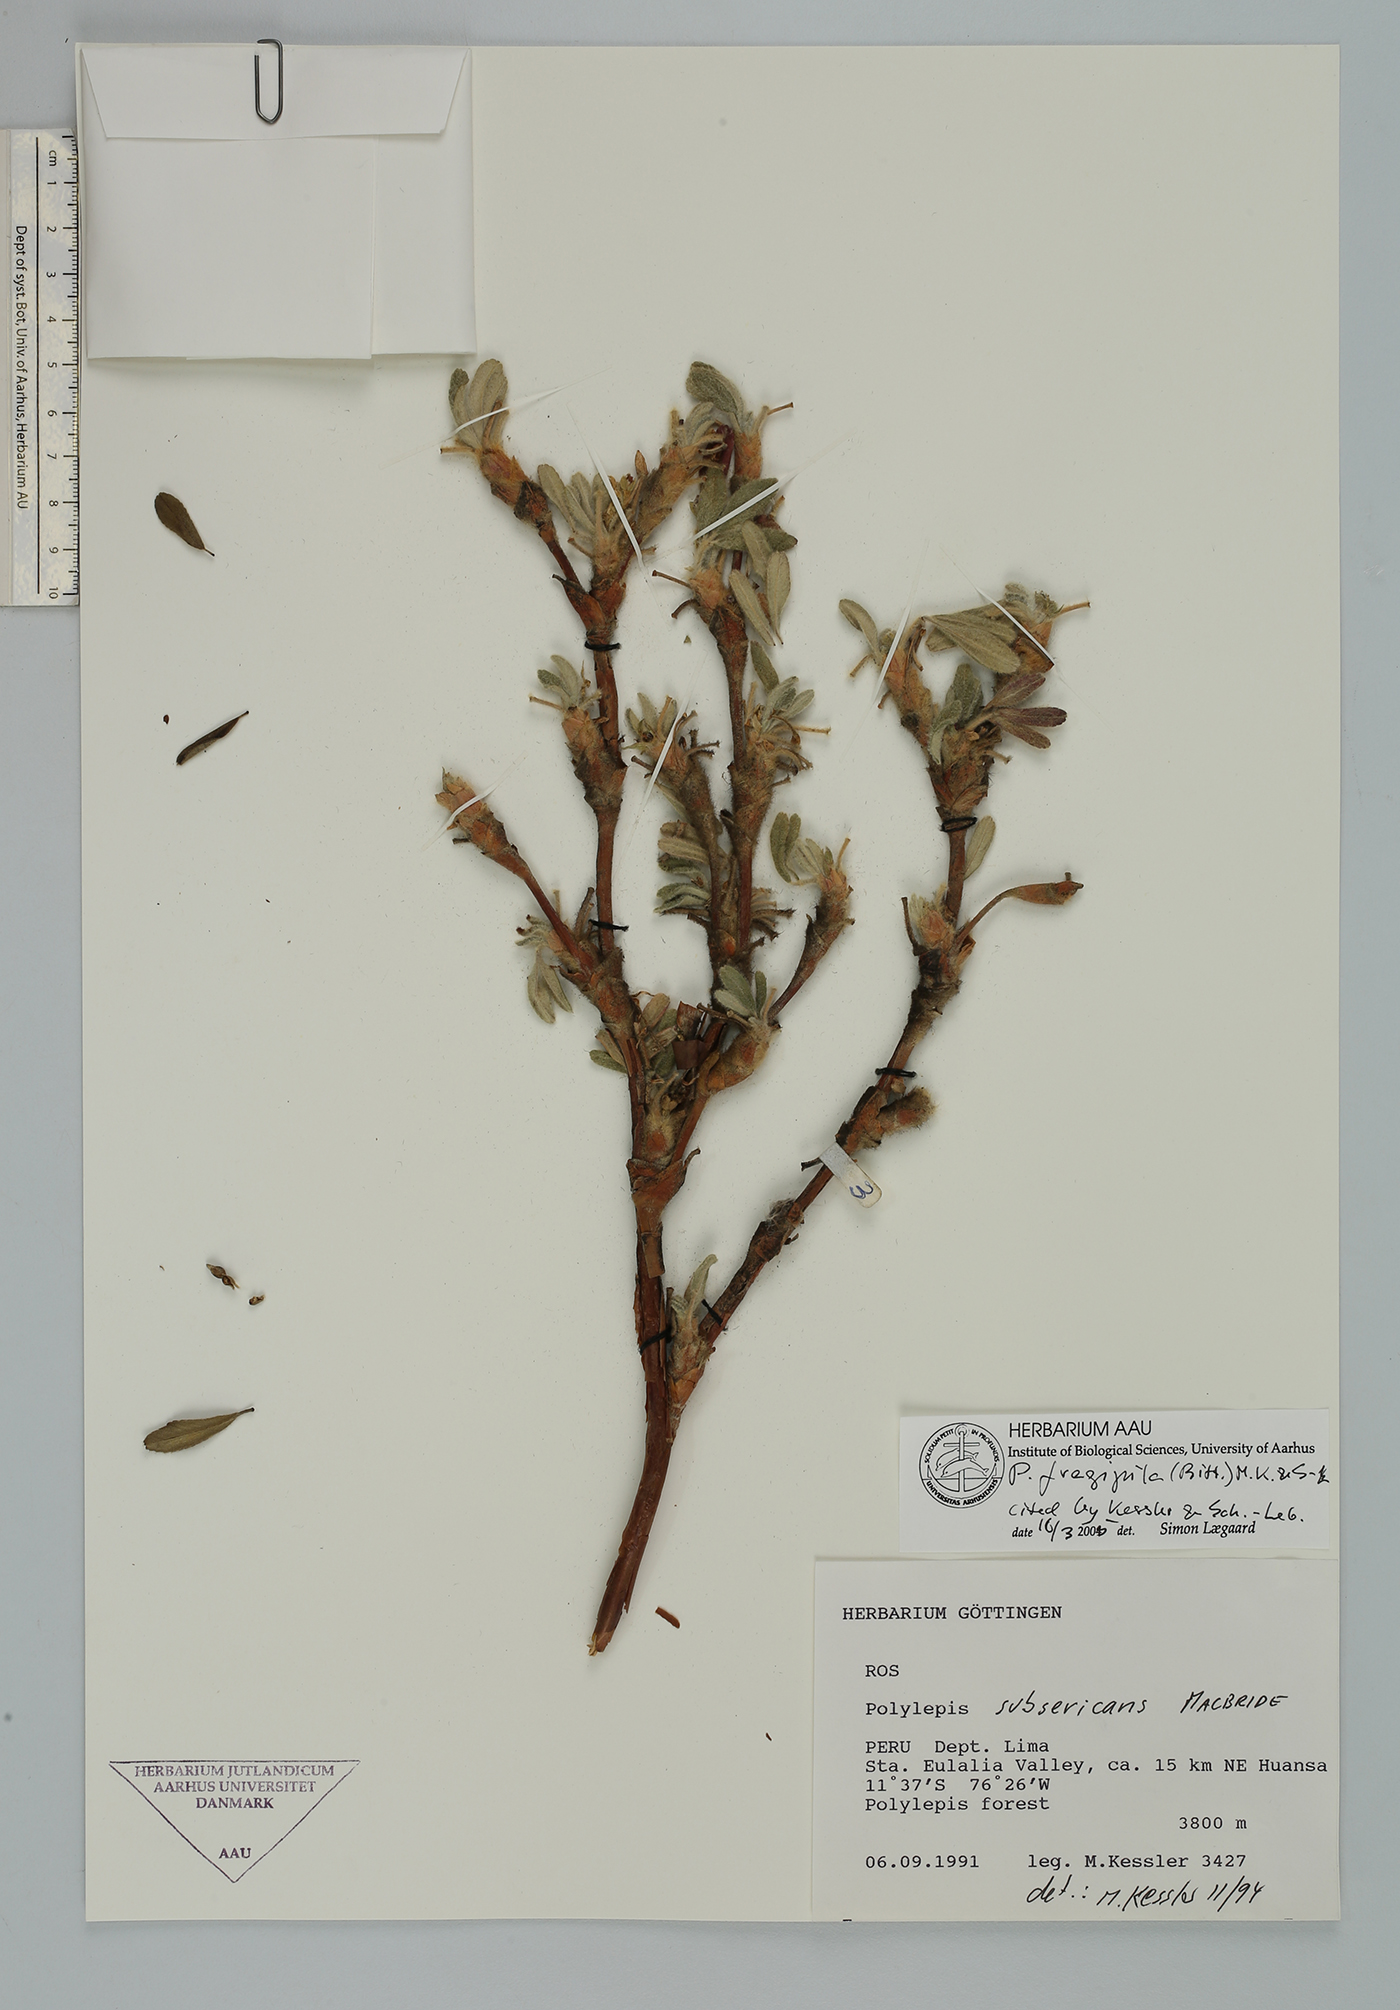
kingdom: Plantae
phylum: Tracheophyta
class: Magnoliopsida
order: Rosales
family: Rosaceae
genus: Polylepis
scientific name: Polylepis flavipila
